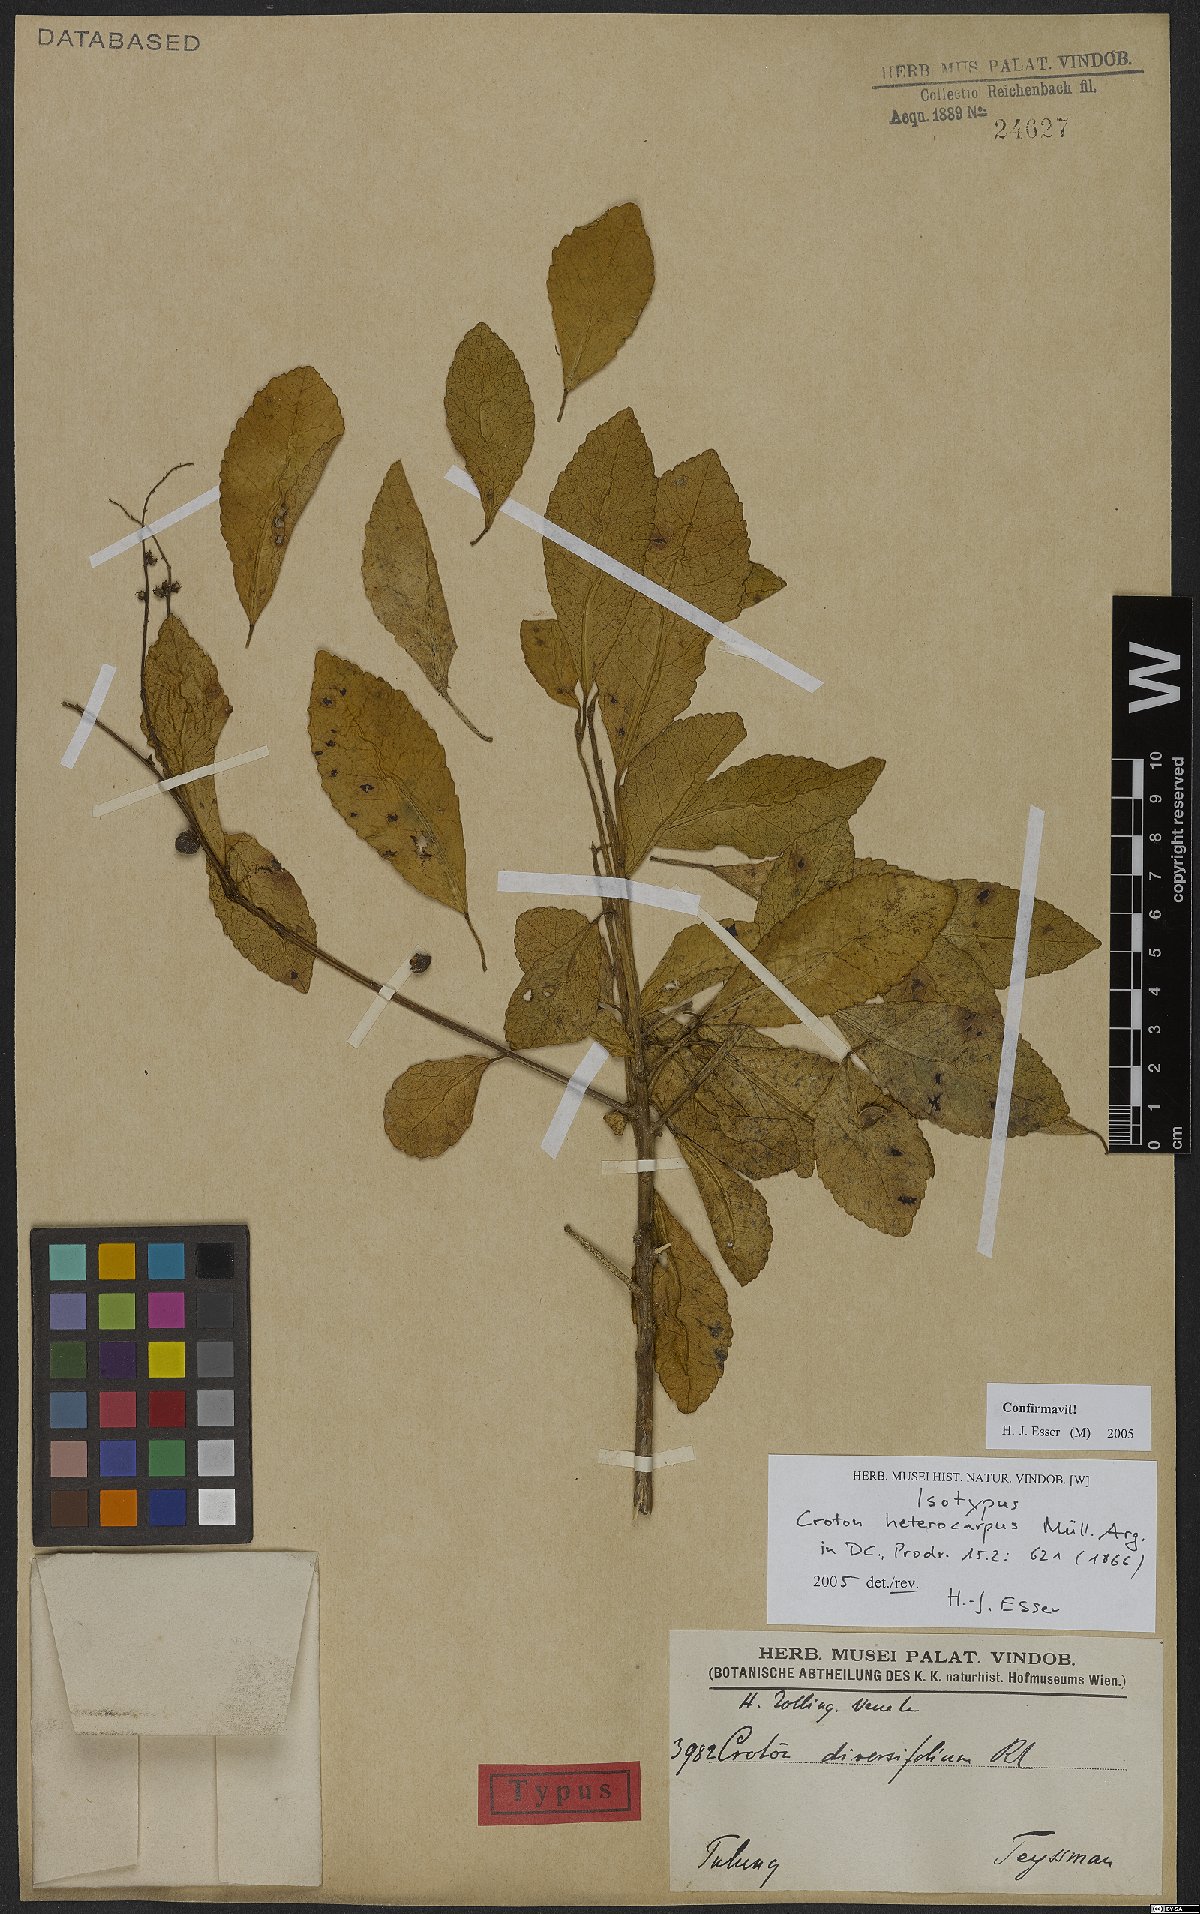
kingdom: Plantae
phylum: Tracheophyta
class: Magnoliopsida
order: Malpighiales
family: Euphorbiaceae
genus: Croton
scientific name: Croton heterocarpus
